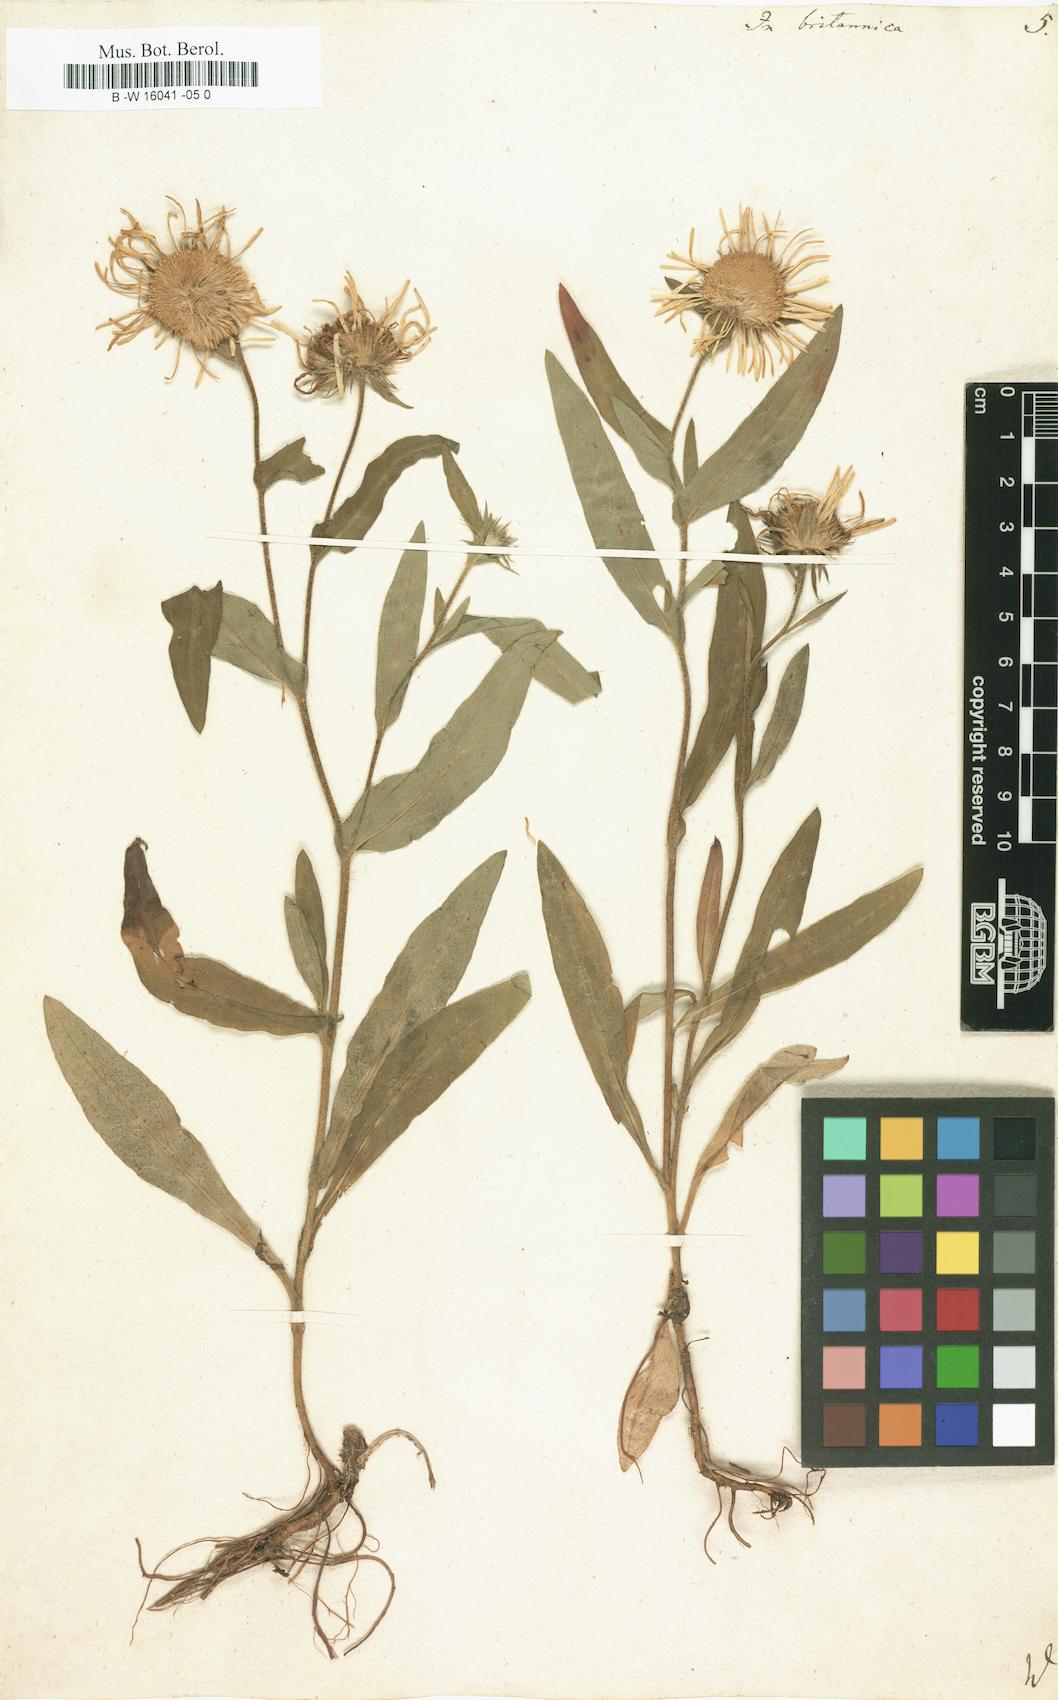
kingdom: Plantae
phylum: Tracheophyta
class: Magnoliopsida
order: Asterales
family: Asteraceae
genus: Inula
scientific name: Inula britannica
